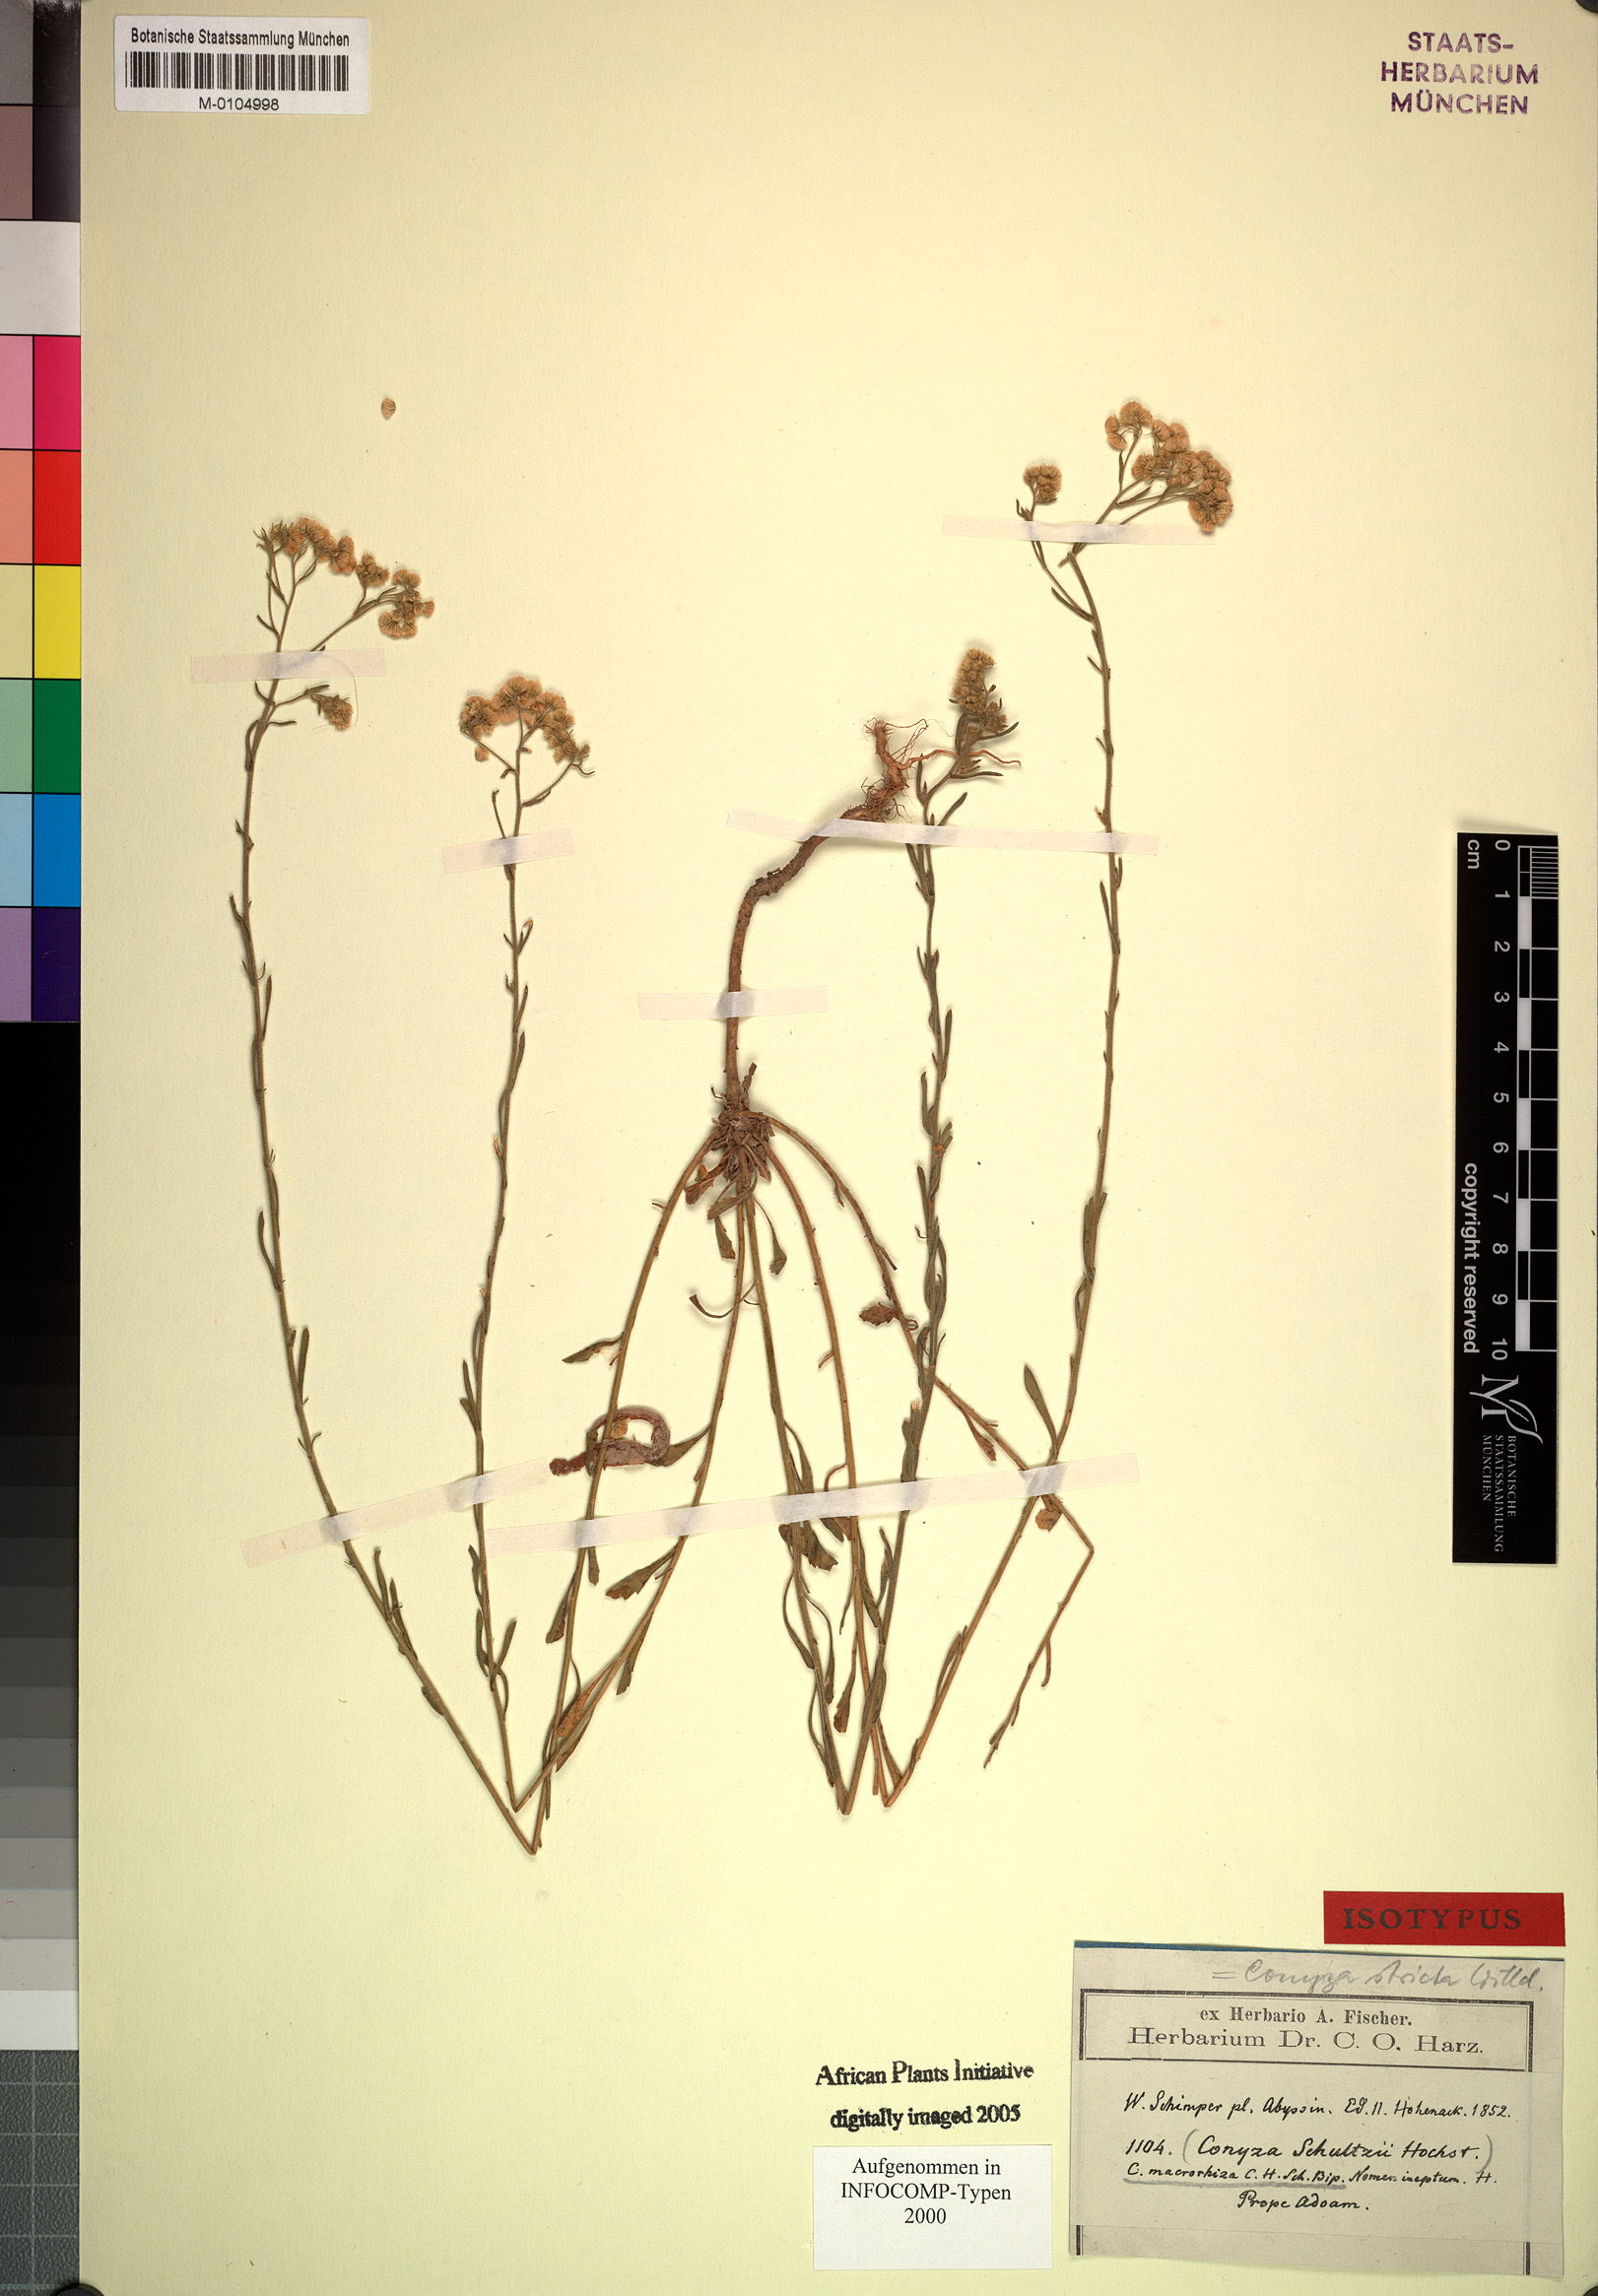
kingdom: Plantae
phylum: Tracheophyta
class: Magnoliopsida
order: Asterales
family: Asteraceae
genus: Nidorella
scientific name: Nidorella triloba
